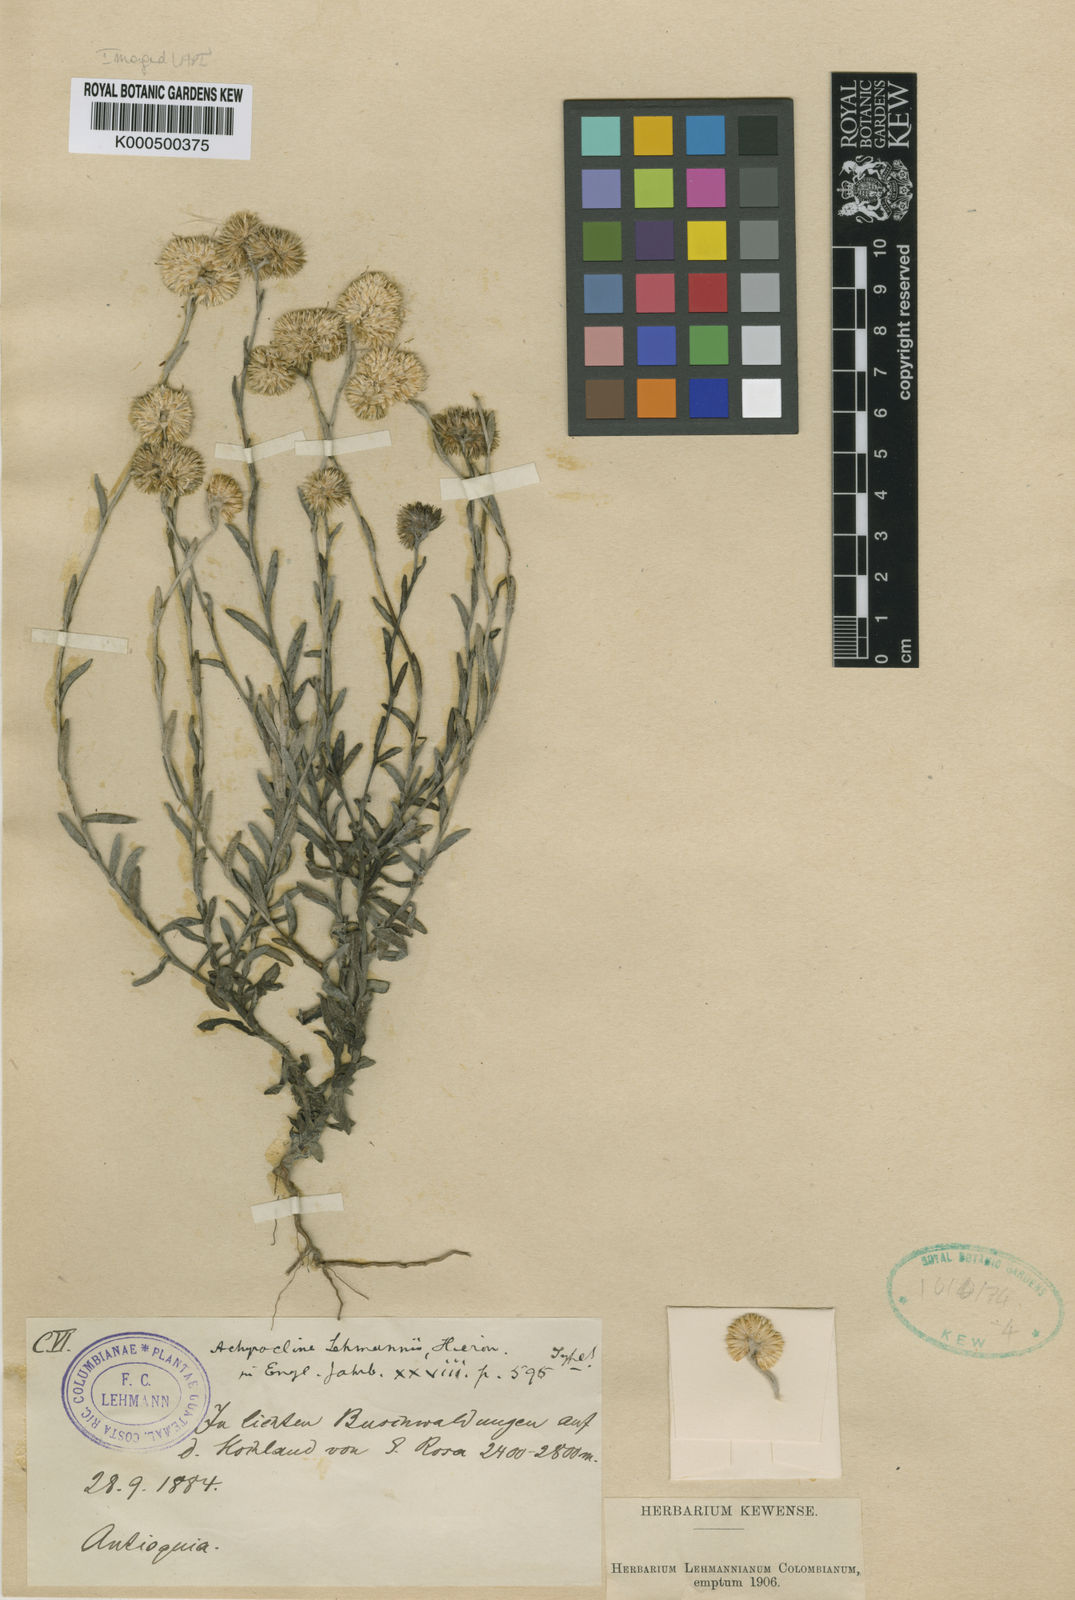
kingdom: Plantae
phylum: Tracheophyta
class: Magnoliopsida
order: Asterales
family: Asteraceae
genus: Achyrocline
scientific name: Achyrocline lehmannii
